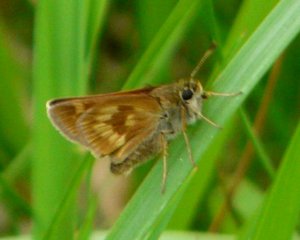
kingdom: Animalia
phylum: Arthropoda
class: Insecta
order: Lepidoptera
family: Hesperiidae
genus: Polites
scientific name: Polites
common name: Long Dash Skipper
